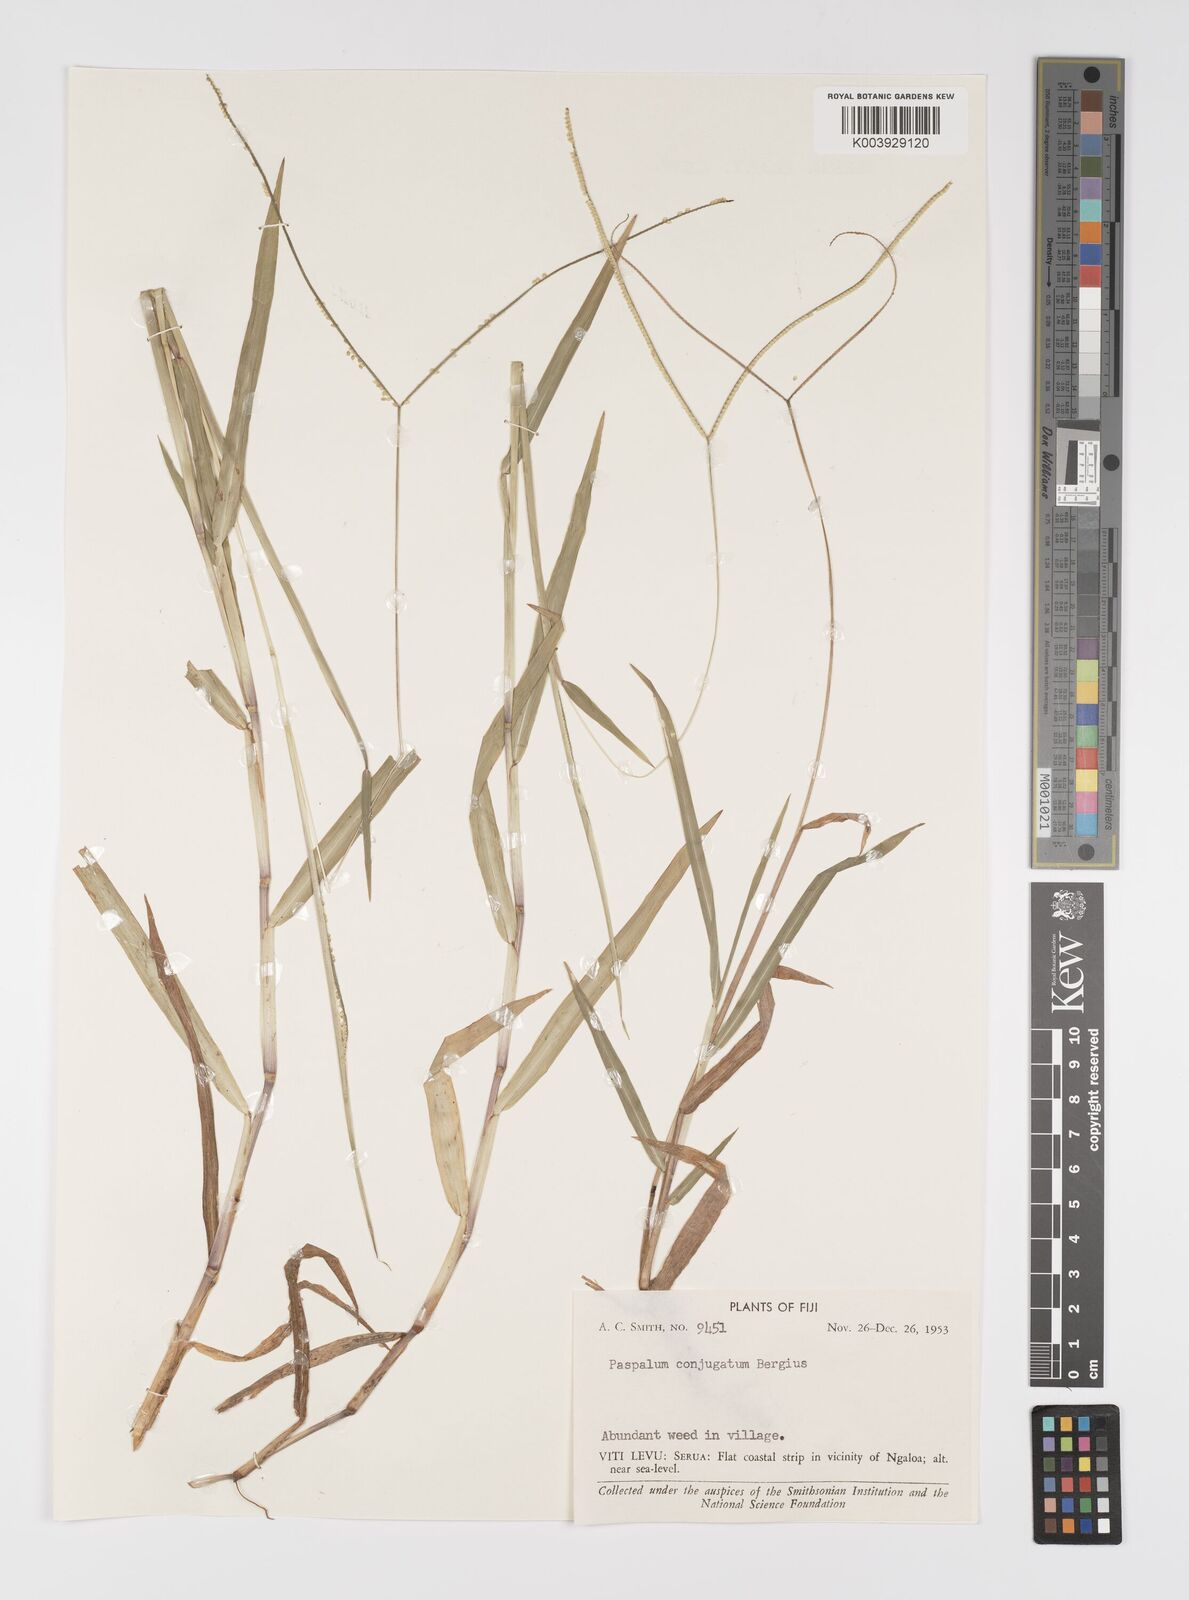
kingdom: Plantae
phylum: Tracheophyta
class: Liliopsida
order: Poales
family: Poaceae
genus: Paspalum
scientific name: Paspalum conjugatum
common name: Hilograss
